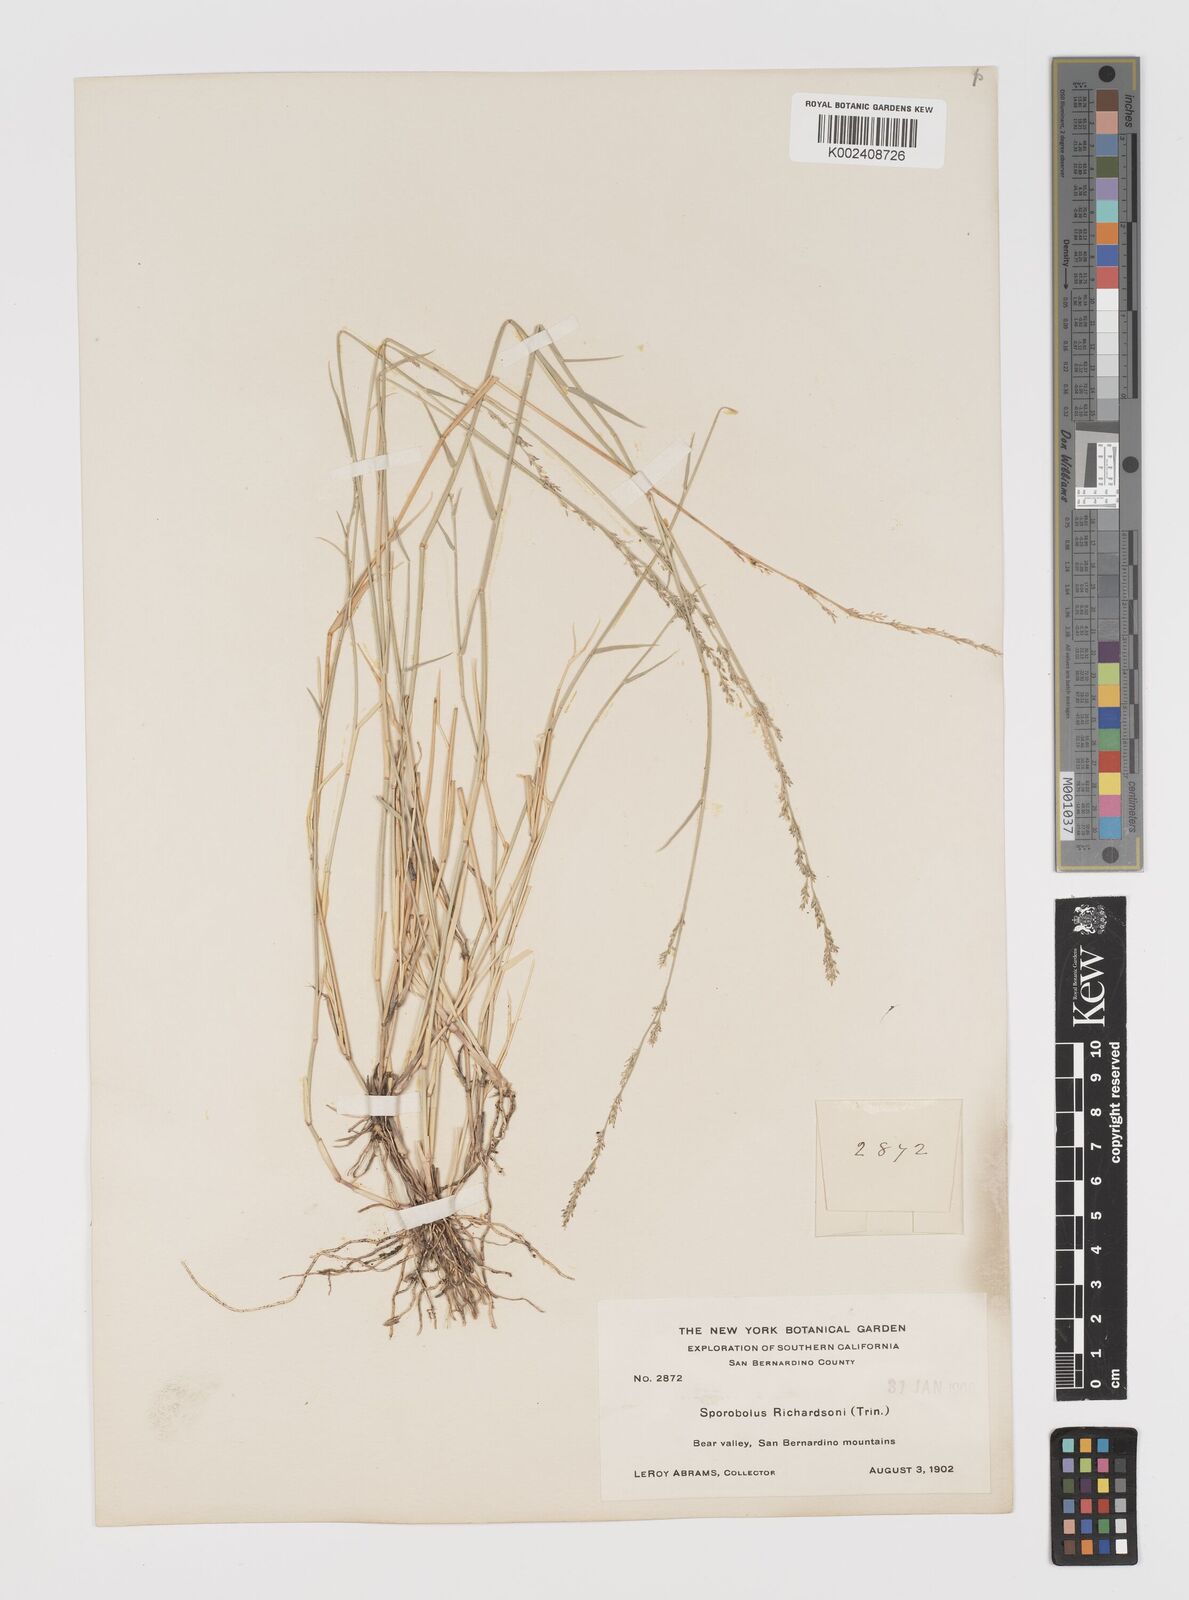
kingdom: Plantae
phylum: Tracheophyta
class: Liliopsida
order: Poales
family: Poaceae
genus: Muhlenbergia
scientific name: Muhlenbergia richardsonis
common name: Mat muhly
